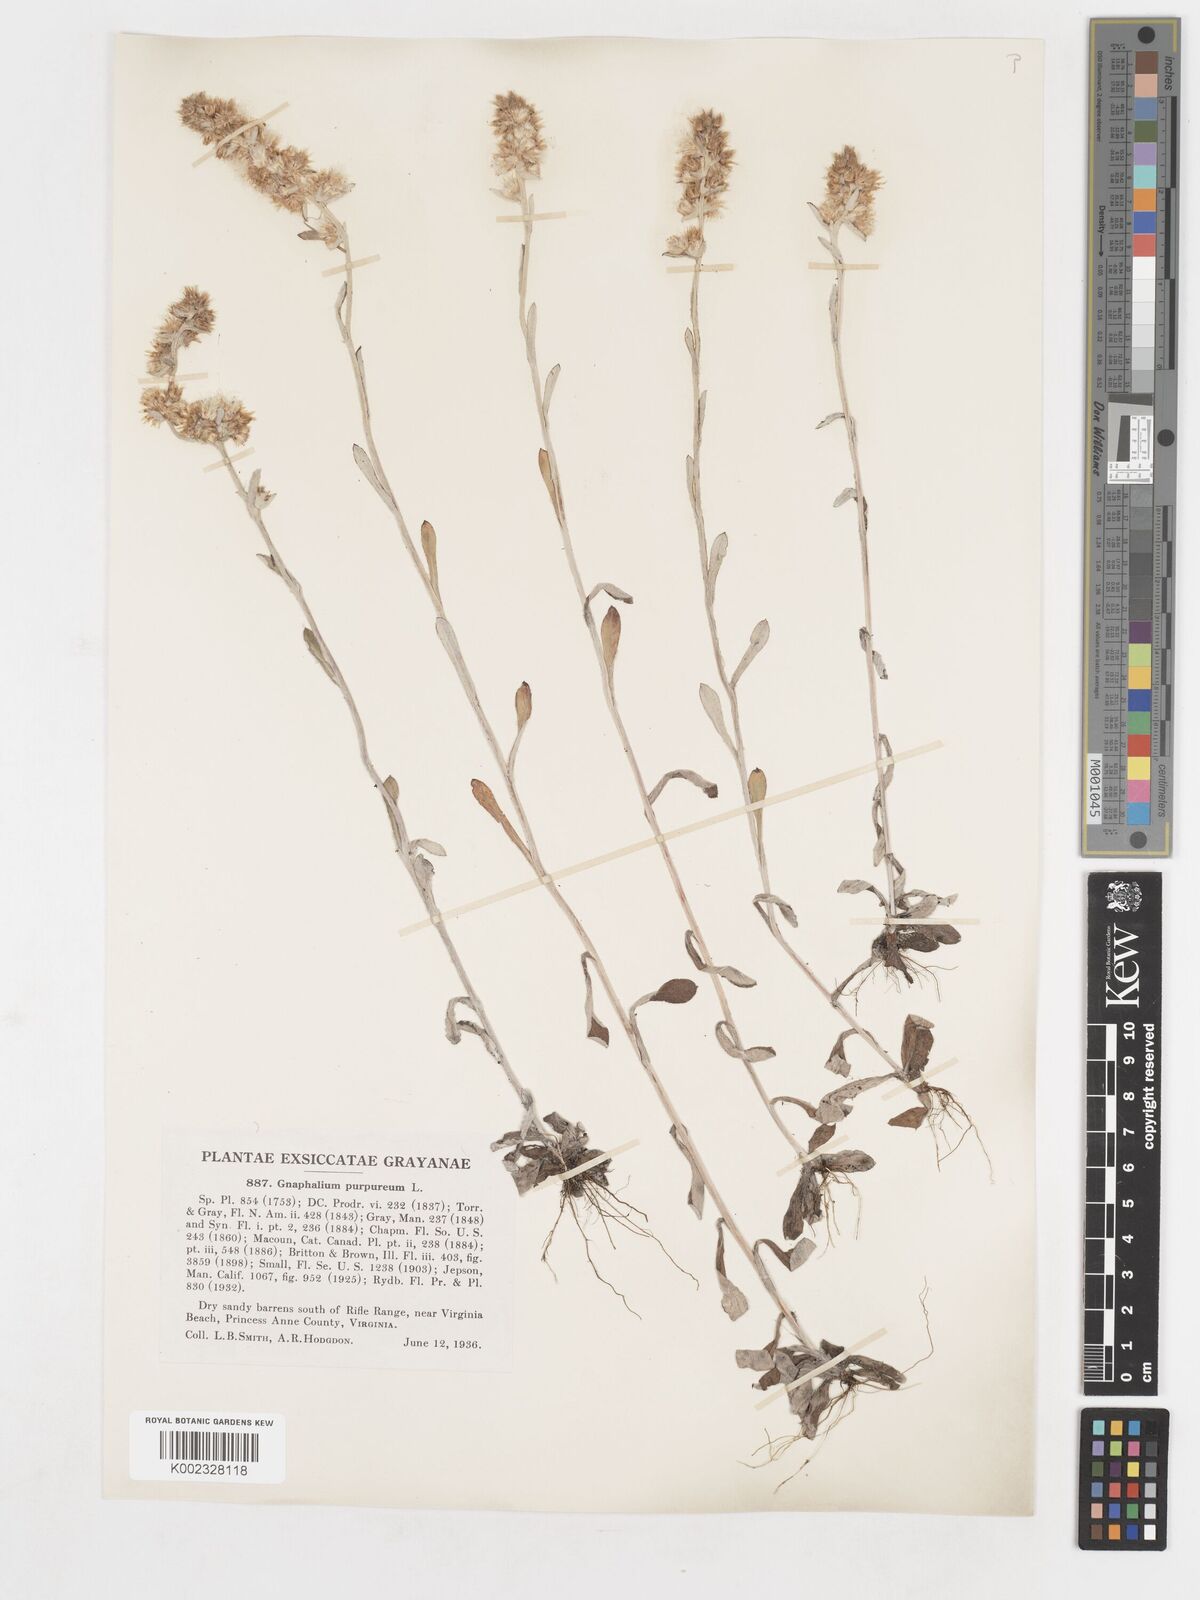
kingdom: Plantae
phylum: Tracheophyta
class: Magnoliopsida
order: Asterales
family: Asteraceae
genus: Gamochaeta
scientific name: Gamochaeta purpurea
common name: Purple cudweed
